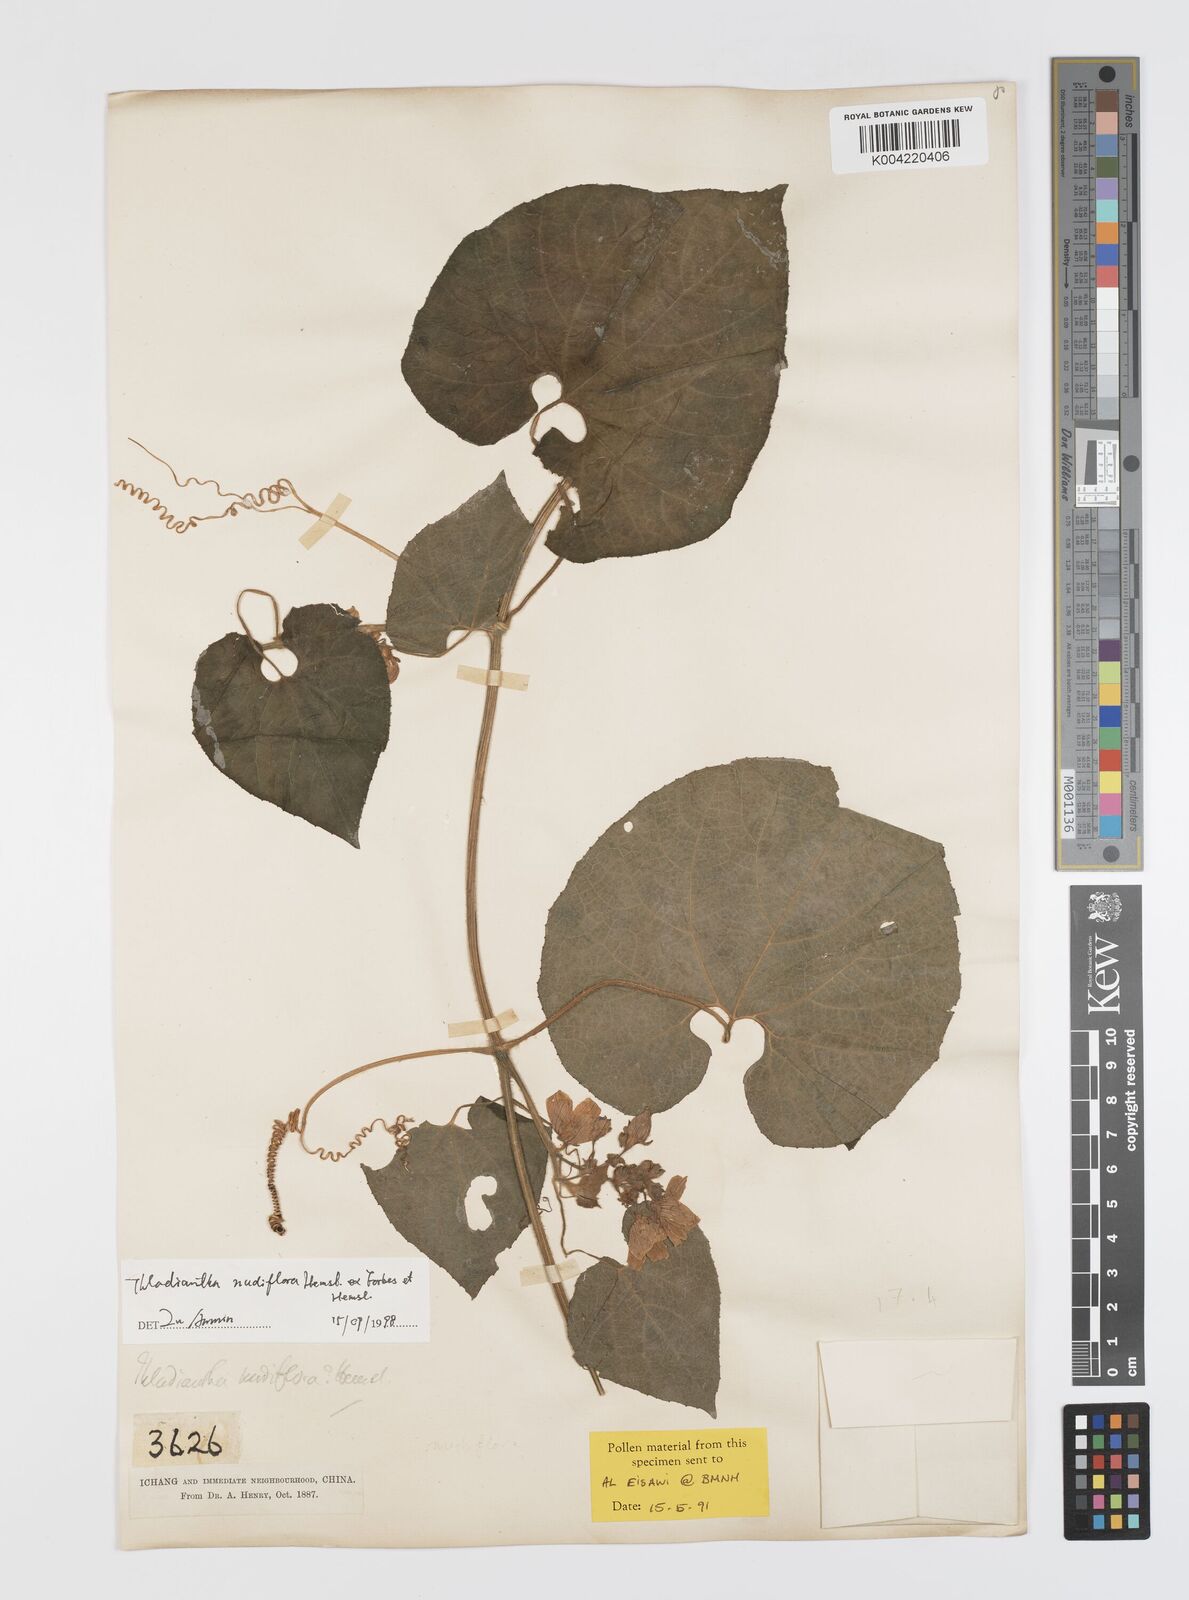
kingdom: Plantae
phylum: Tracheophyta
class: Magnoliopsida
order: Cucurbitales
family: Cucurbitaceae
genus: Thladiantha
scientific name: Thladiantha nudiflora
